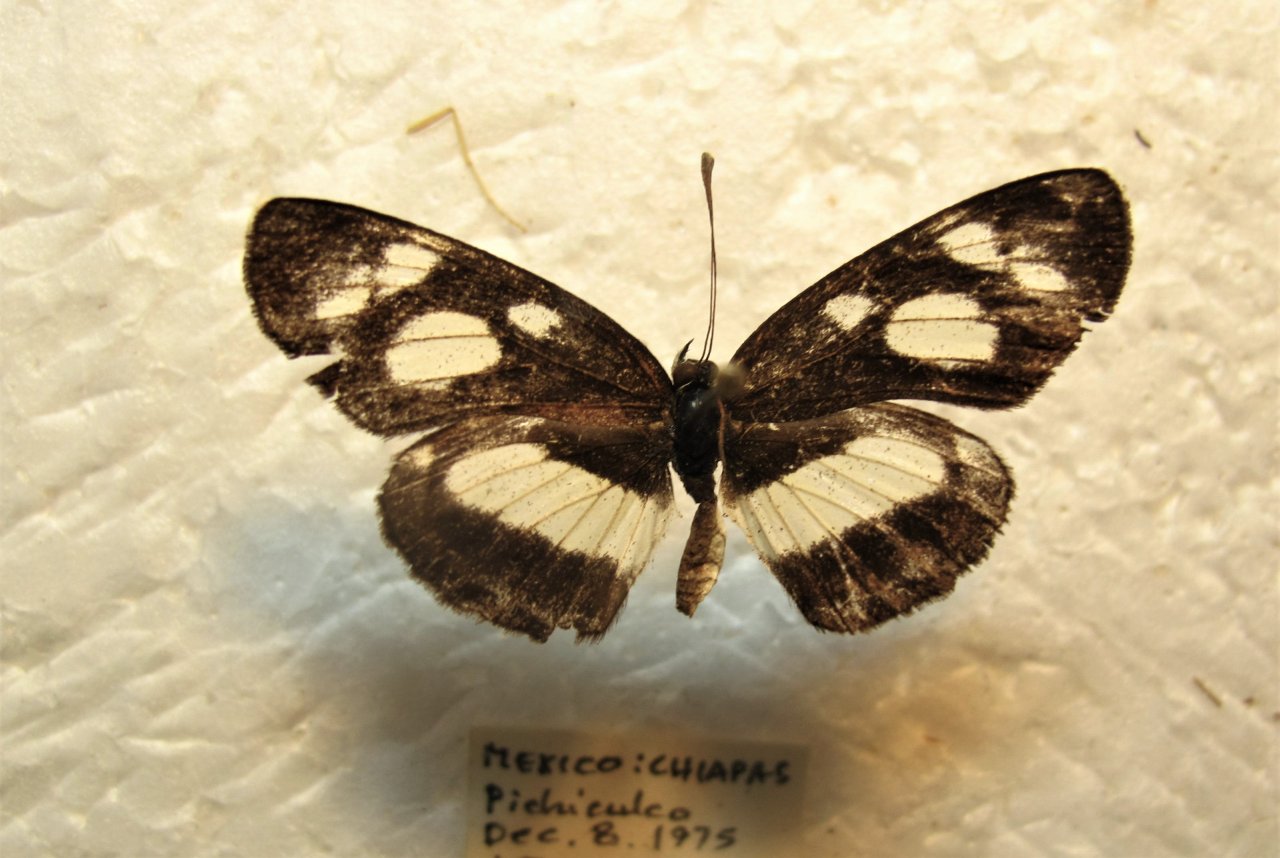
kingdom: Animalia
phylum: Arthropoda
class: Insecta
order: Lepidoptera
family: Nymphalidae
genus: Eresia
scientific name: Eresia clio
